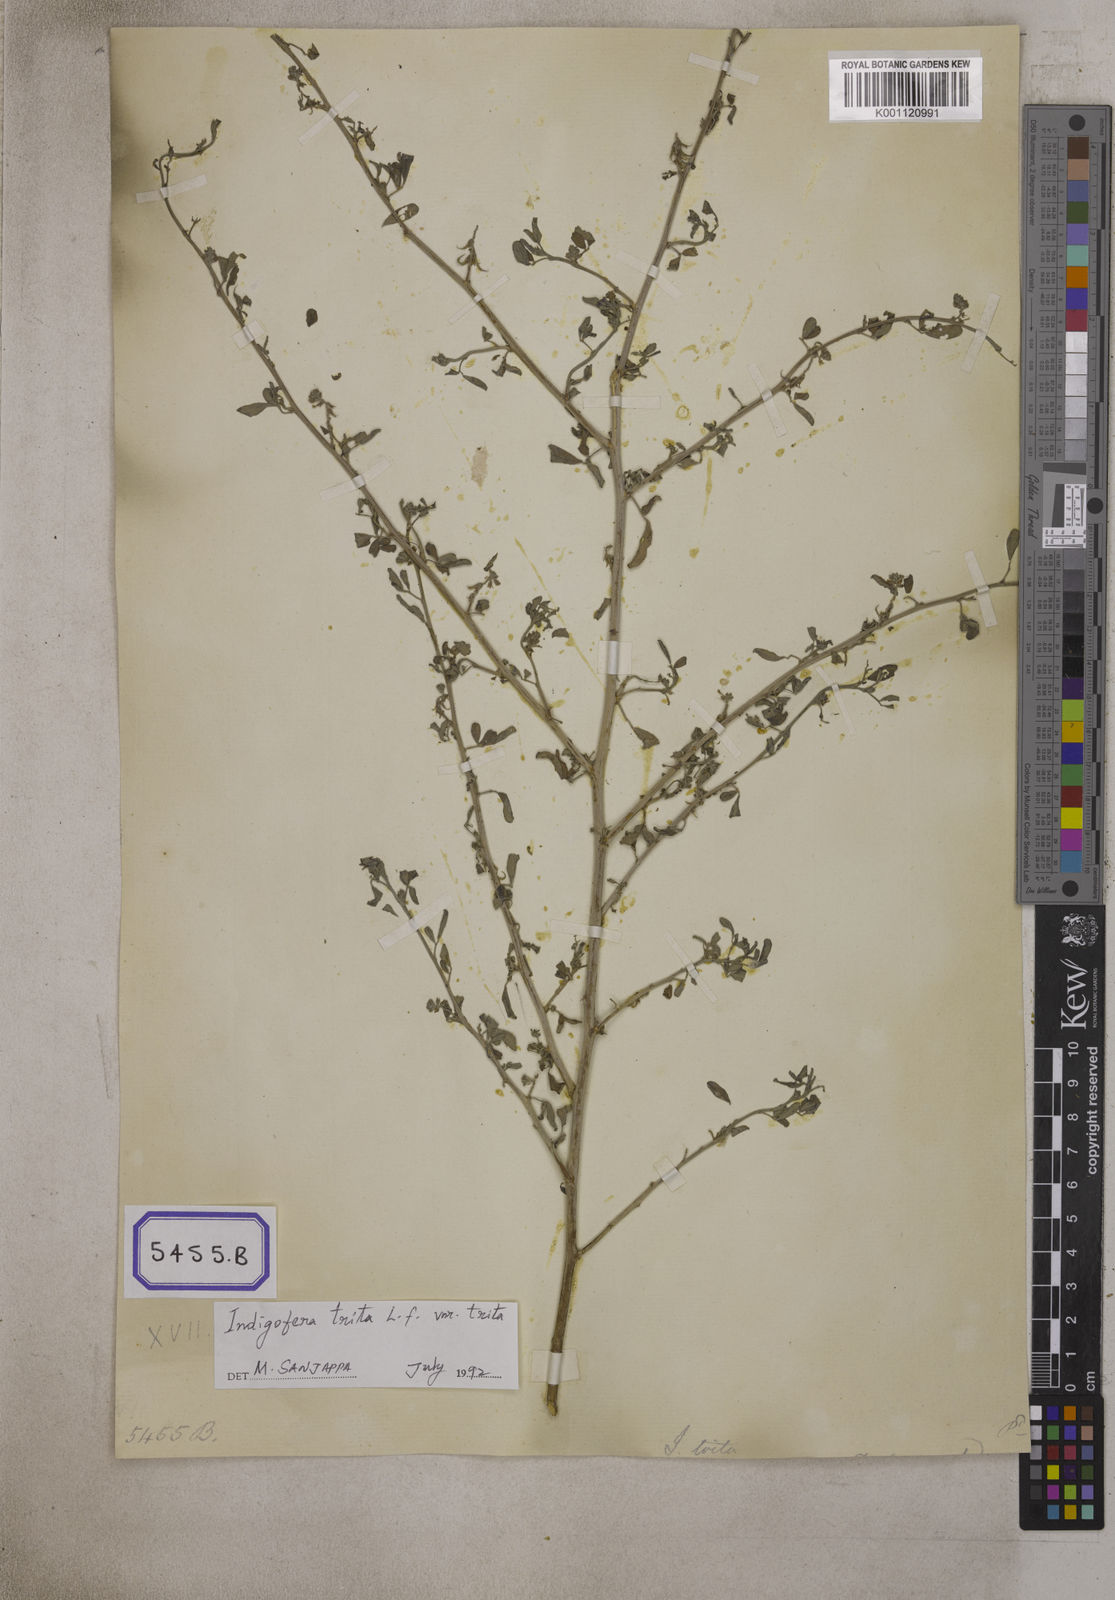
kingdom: Plantae
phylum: Tracheophyta
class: Magnoliopsida
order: Fabales
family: Fabaceae
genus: Indigofera
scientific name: Indigofera
